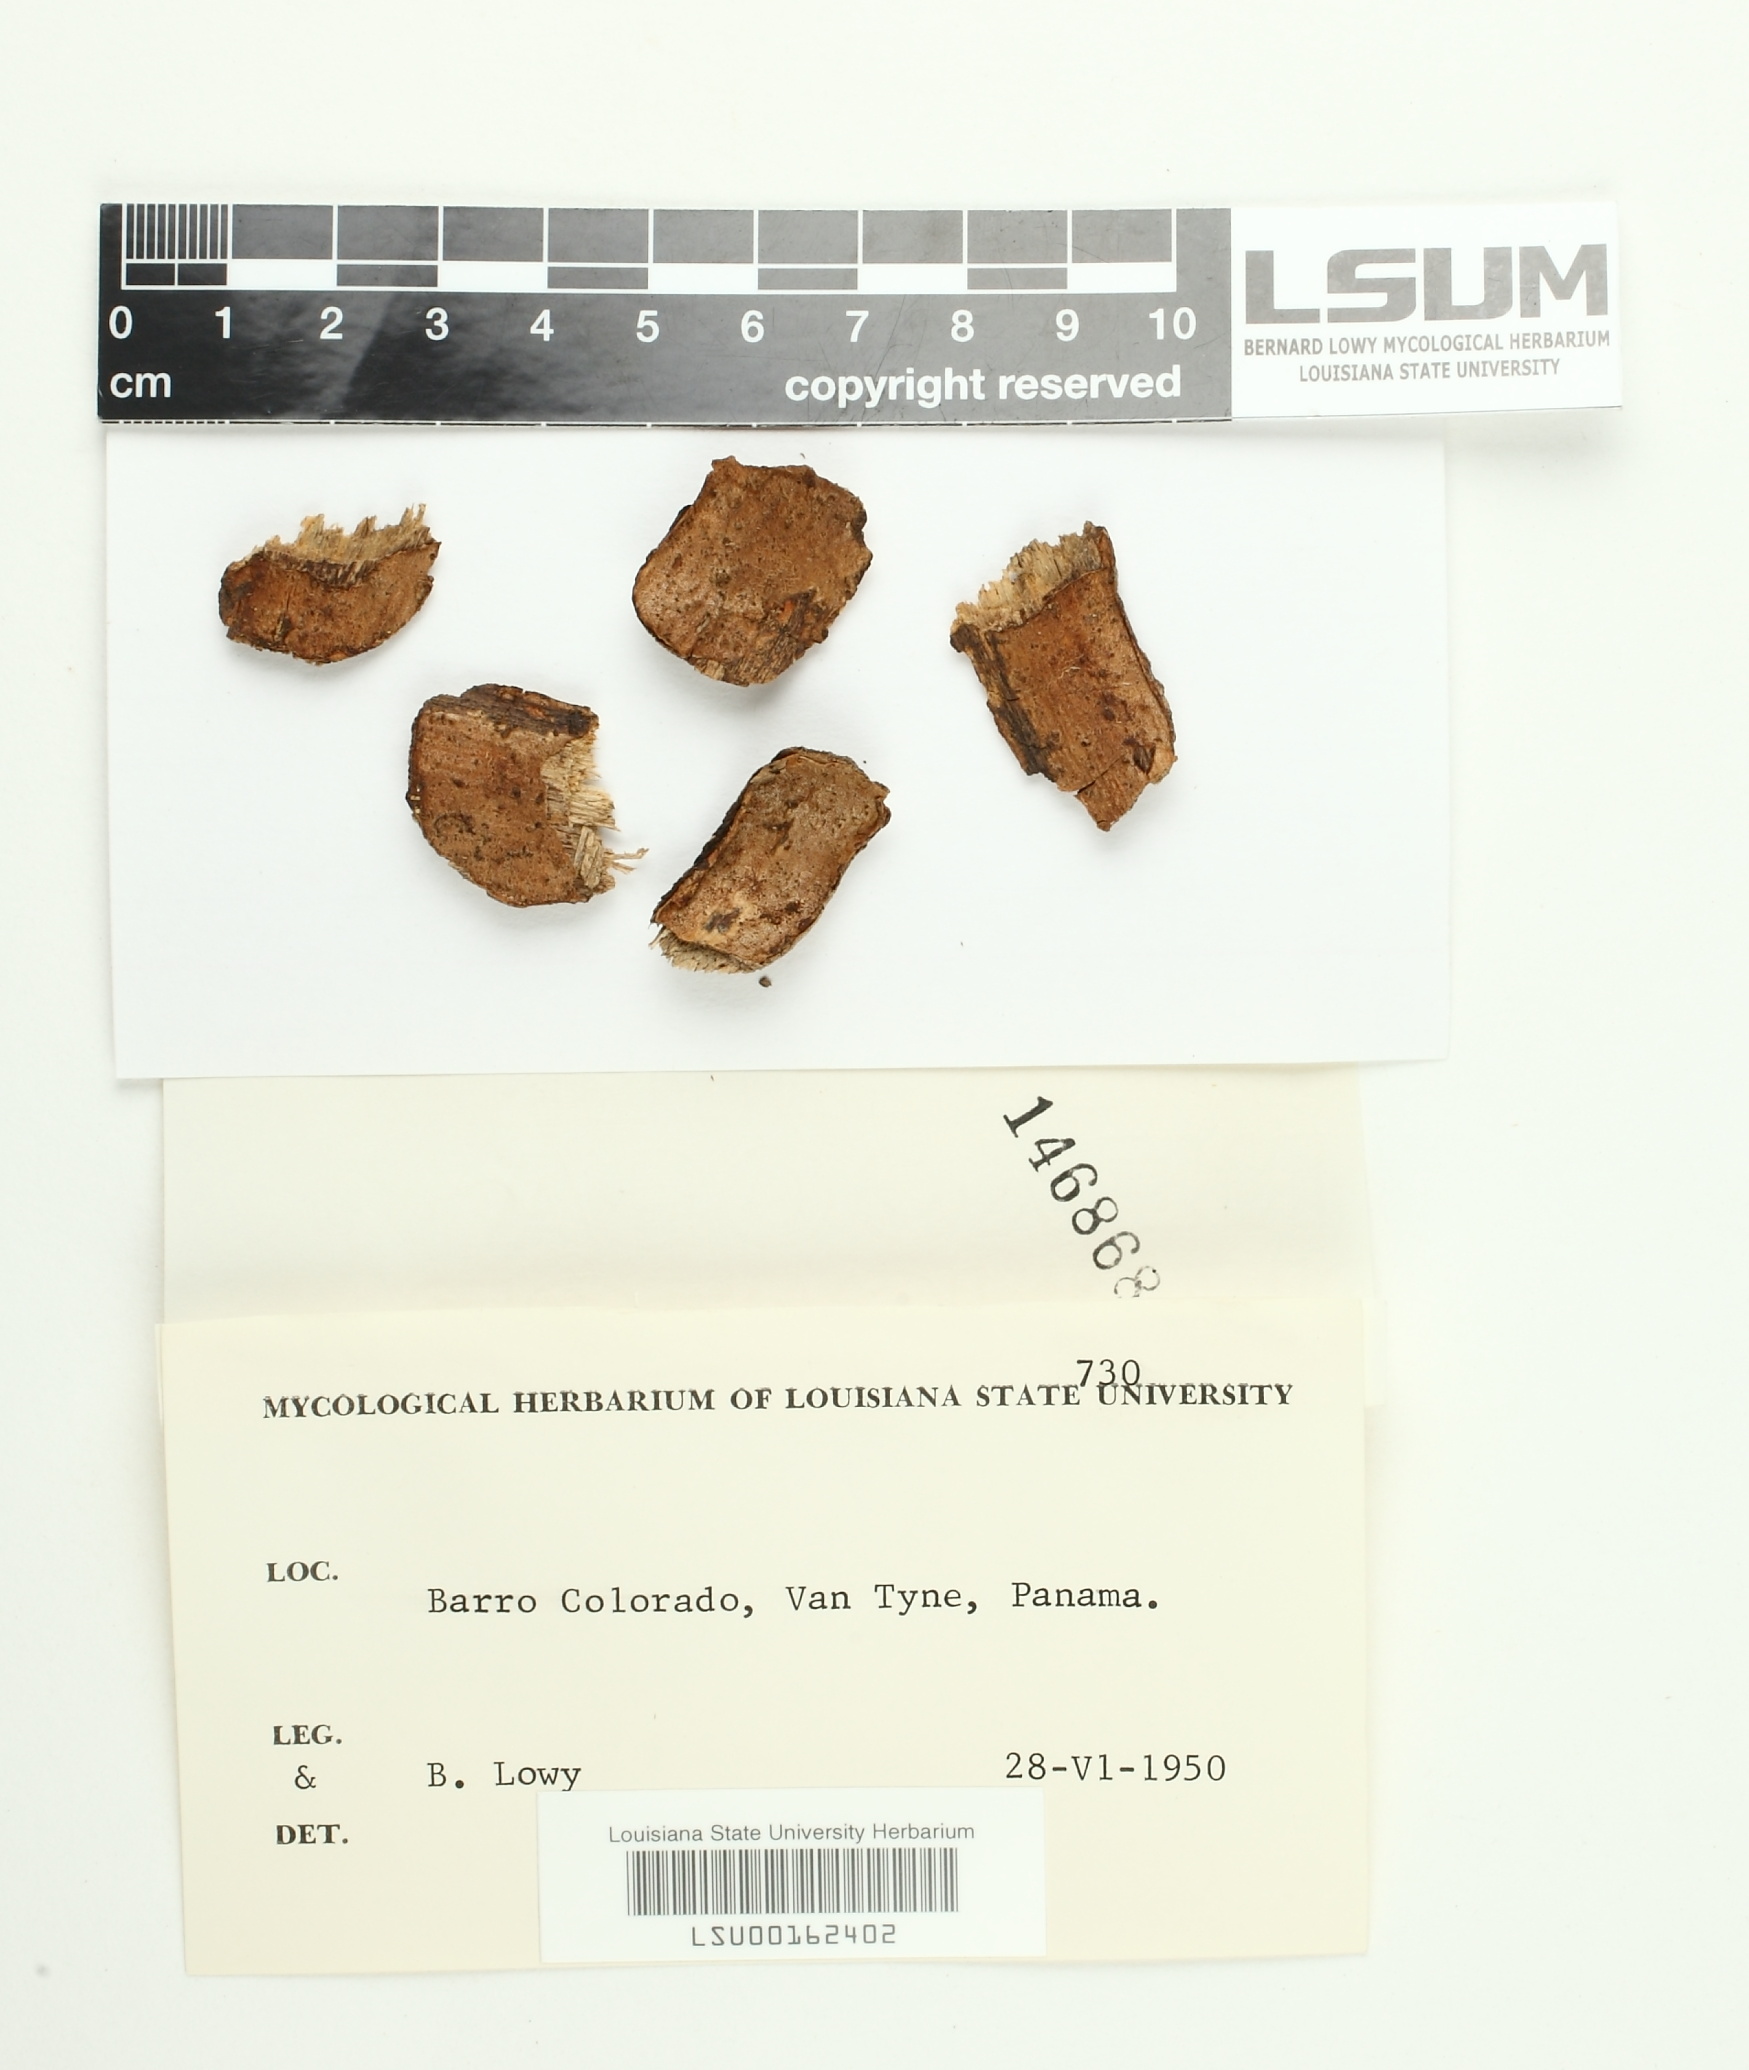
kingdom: Fungi
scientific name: Fungi
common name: Fungi
